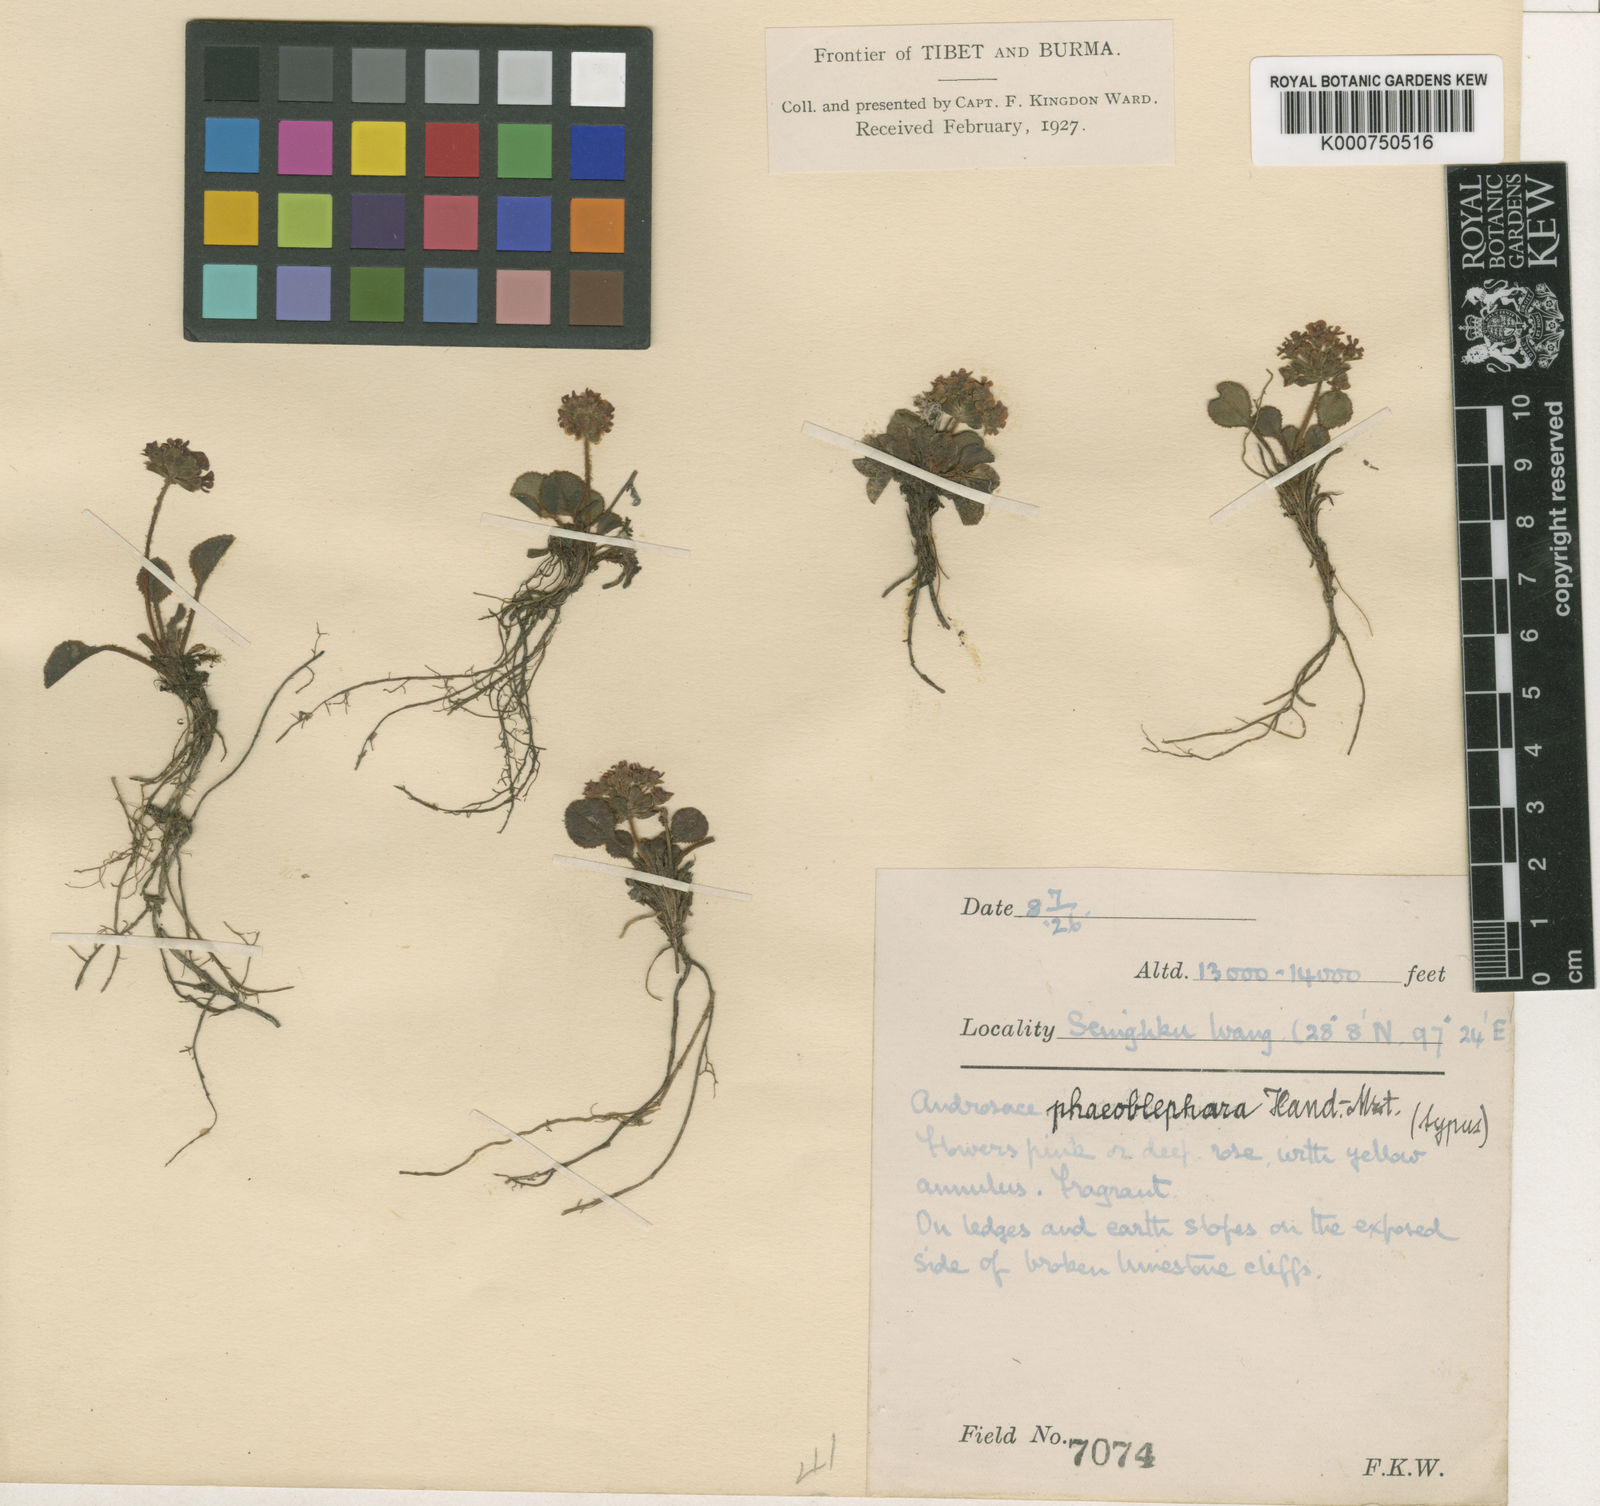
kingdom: Plantae
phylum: Tracheophyta
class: Magnoliopsida
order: Ericales
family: Primulaceae
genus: Androsace
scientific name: Androsace phaeoblephara
